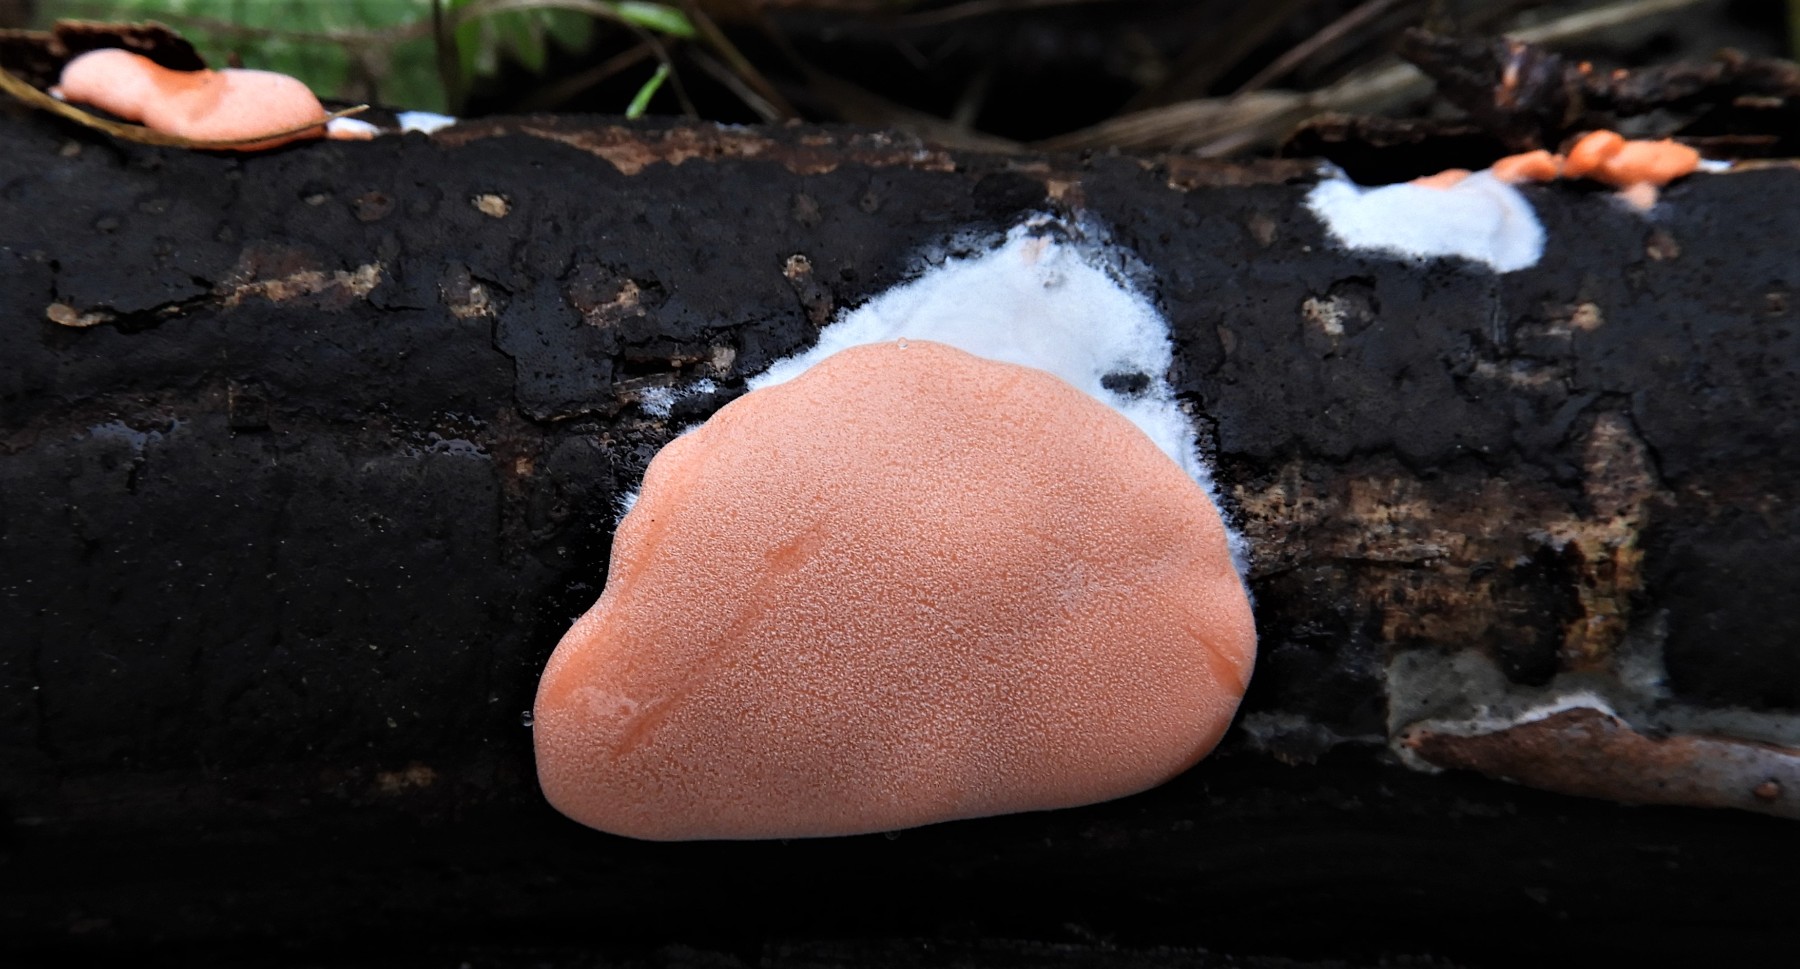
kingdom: Protozoa
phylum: Mycetozoa
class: Myxomycetes
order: Trichiales
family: Dictydiaethaliaceae
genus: Dictydiaethalium
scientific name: Dictydiaethalium plumbeum
